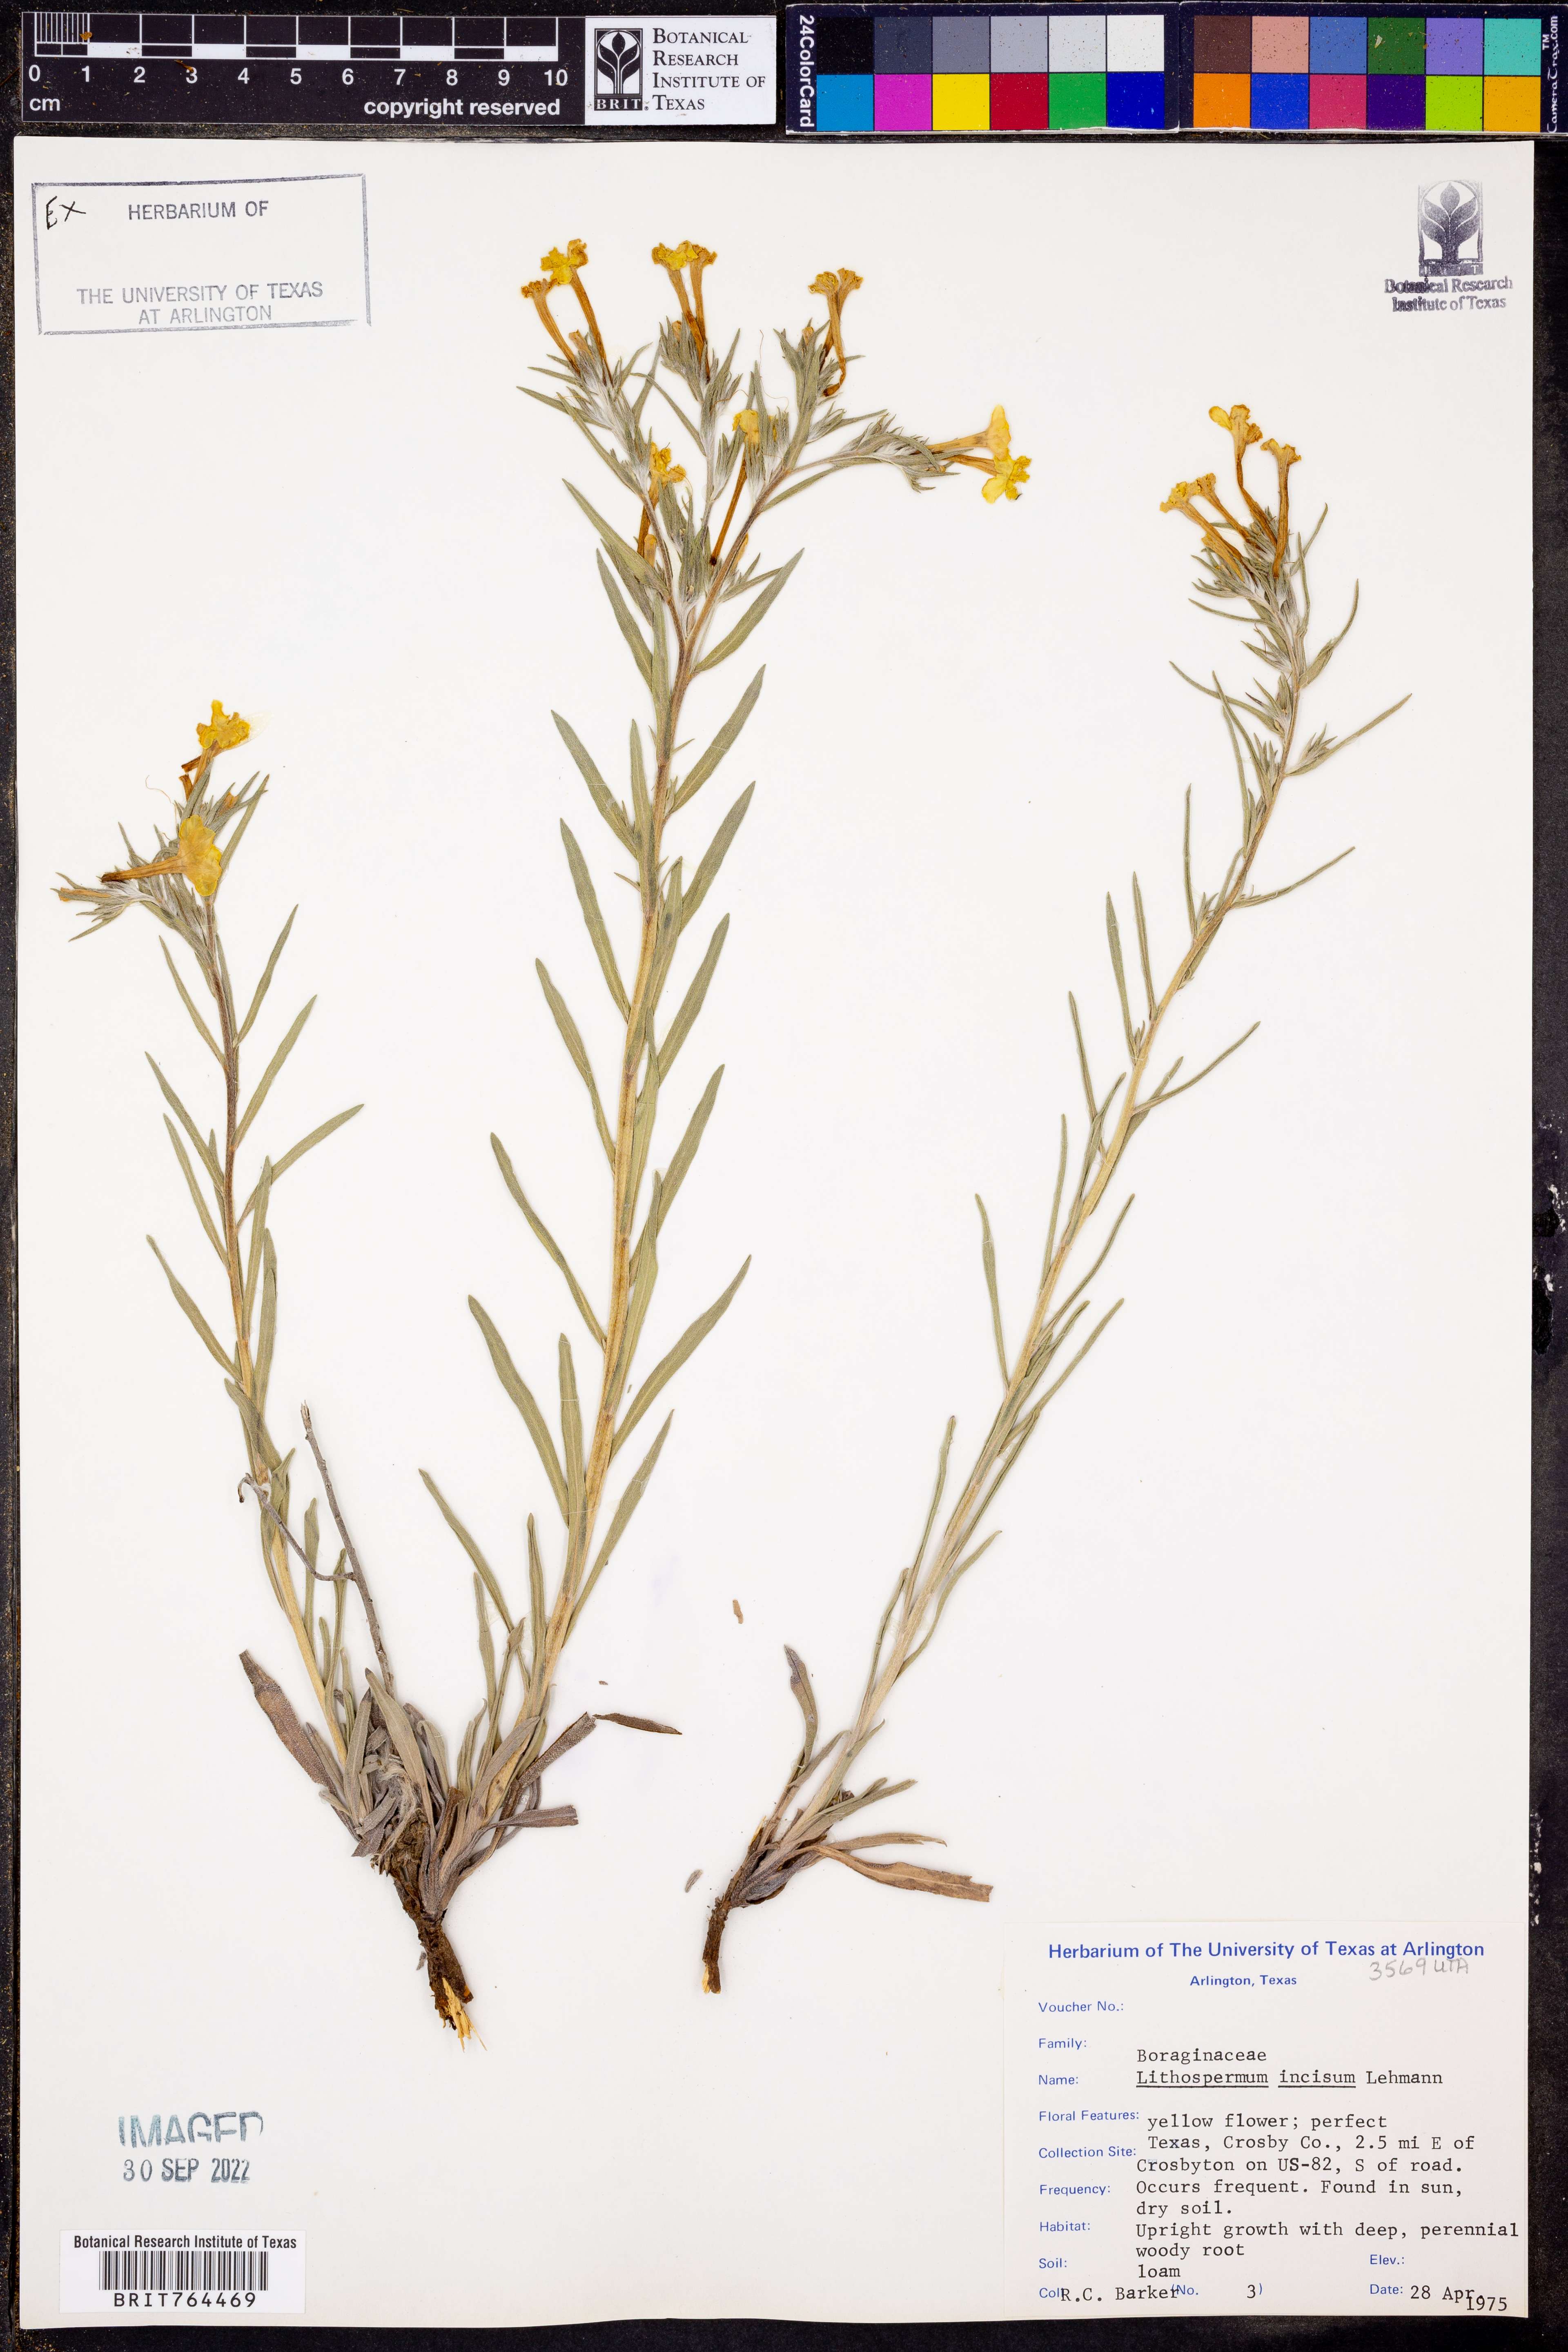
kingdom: Plantae
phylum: Tracheophyta
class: Magnoliopsida
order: Boraginales
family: Boraginaceae
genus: Lithospermum
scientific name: Lithospermum incisum
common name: Fringed gromwell
